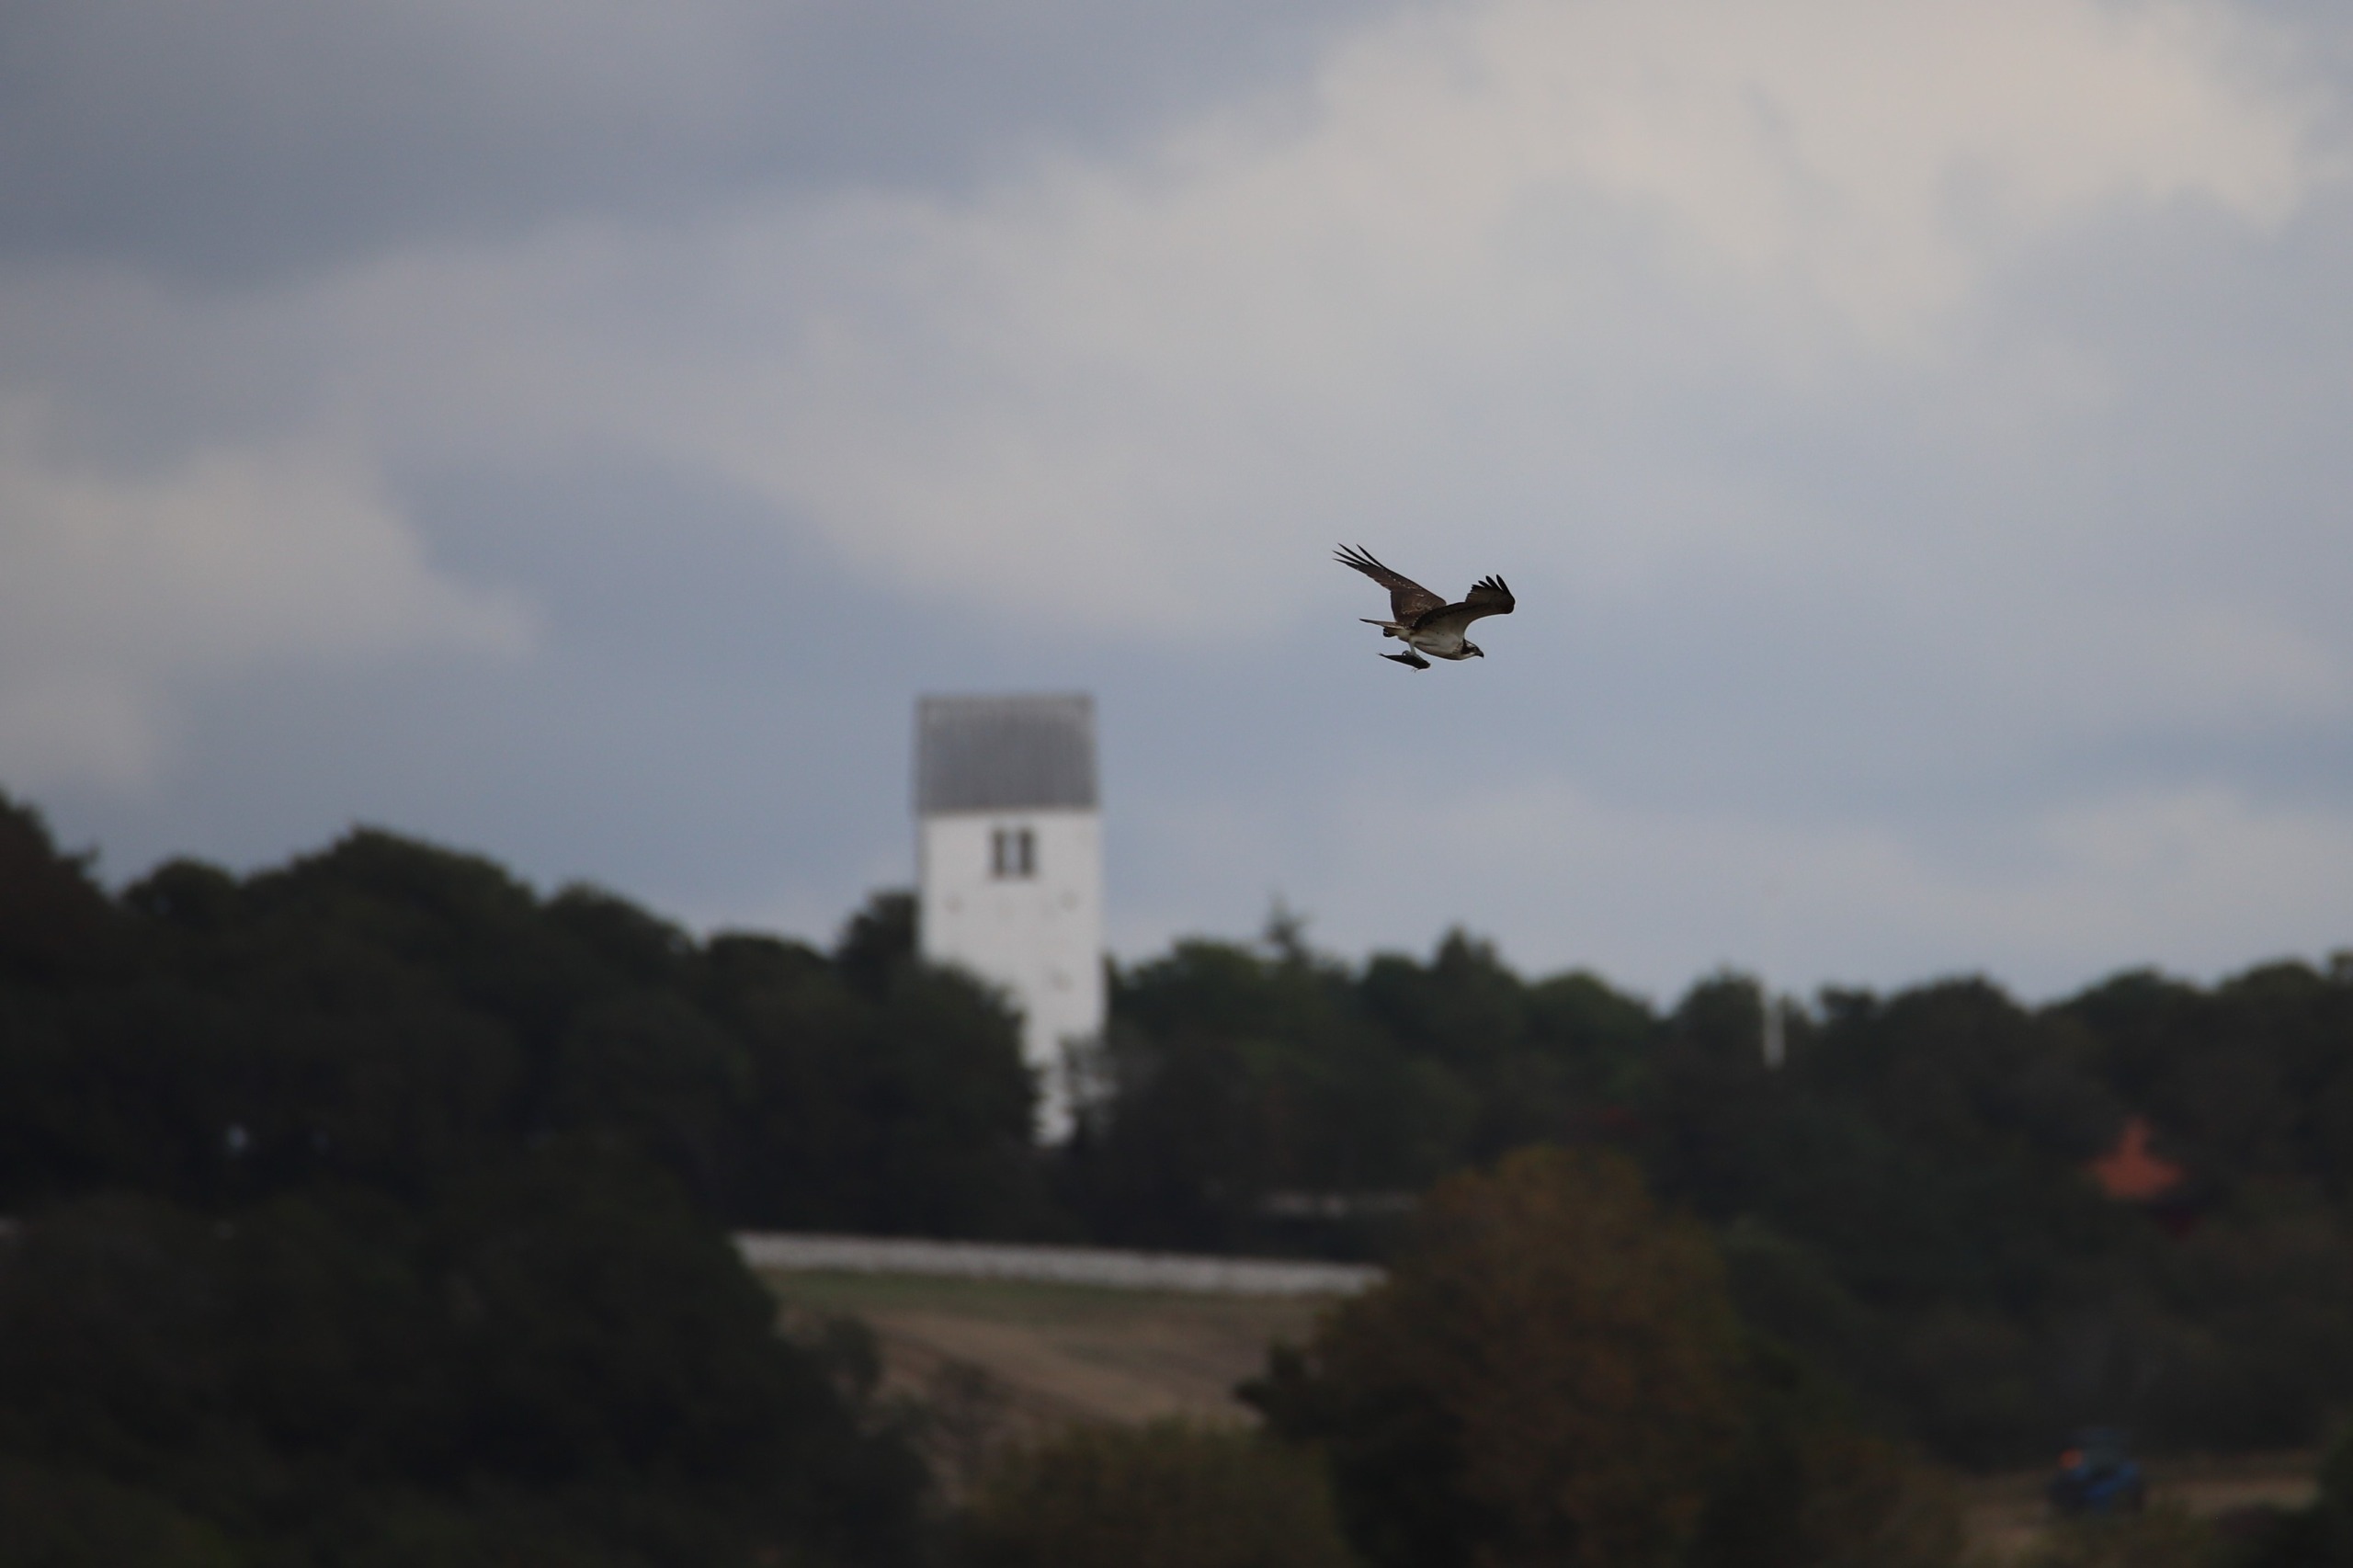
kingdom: Animalia
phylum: Chordata
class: Aves
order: Accipitriformes
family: Pandionidae
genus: Pandion
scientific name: Pandion haliaetus
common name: Fiskeørn
